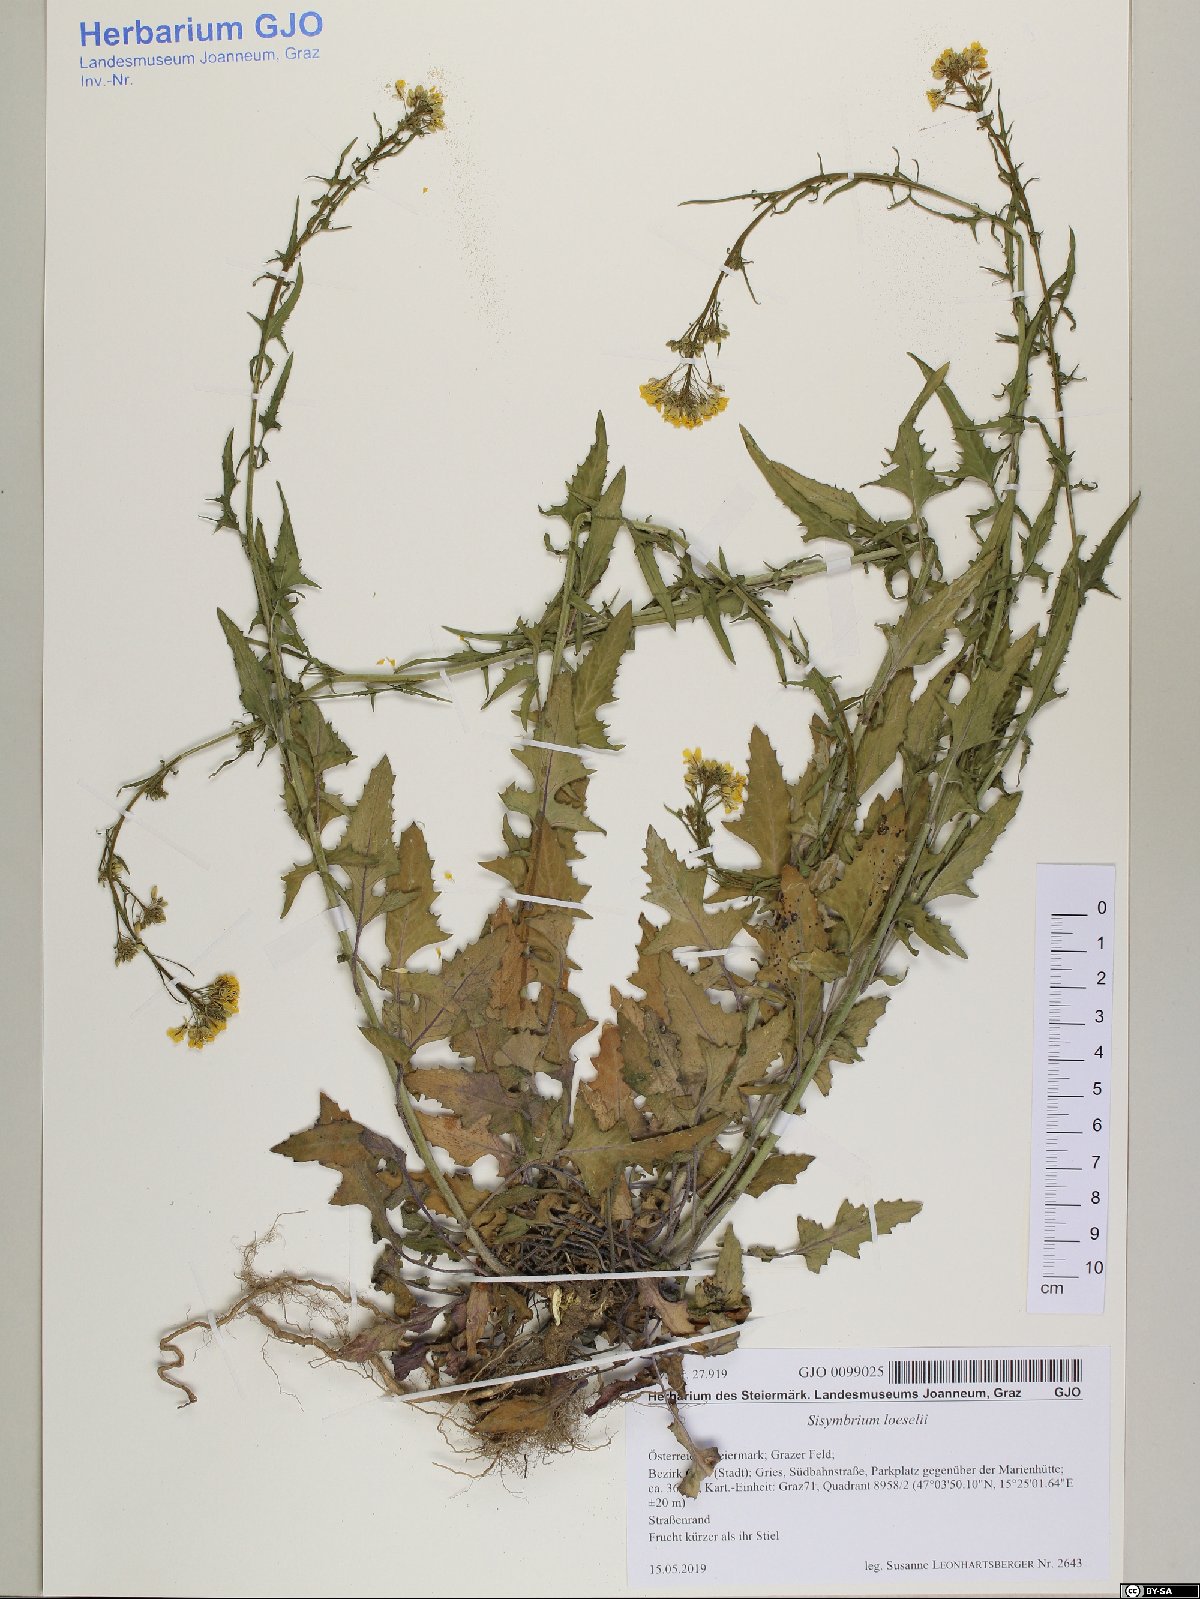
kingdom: Plantae
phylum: Tracheophyta
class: Magnoliopsida
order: Brassicales
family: Brassicaceae
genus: Sisymbrium
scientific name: Sisymbrium loeselii
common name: False london-rocket
